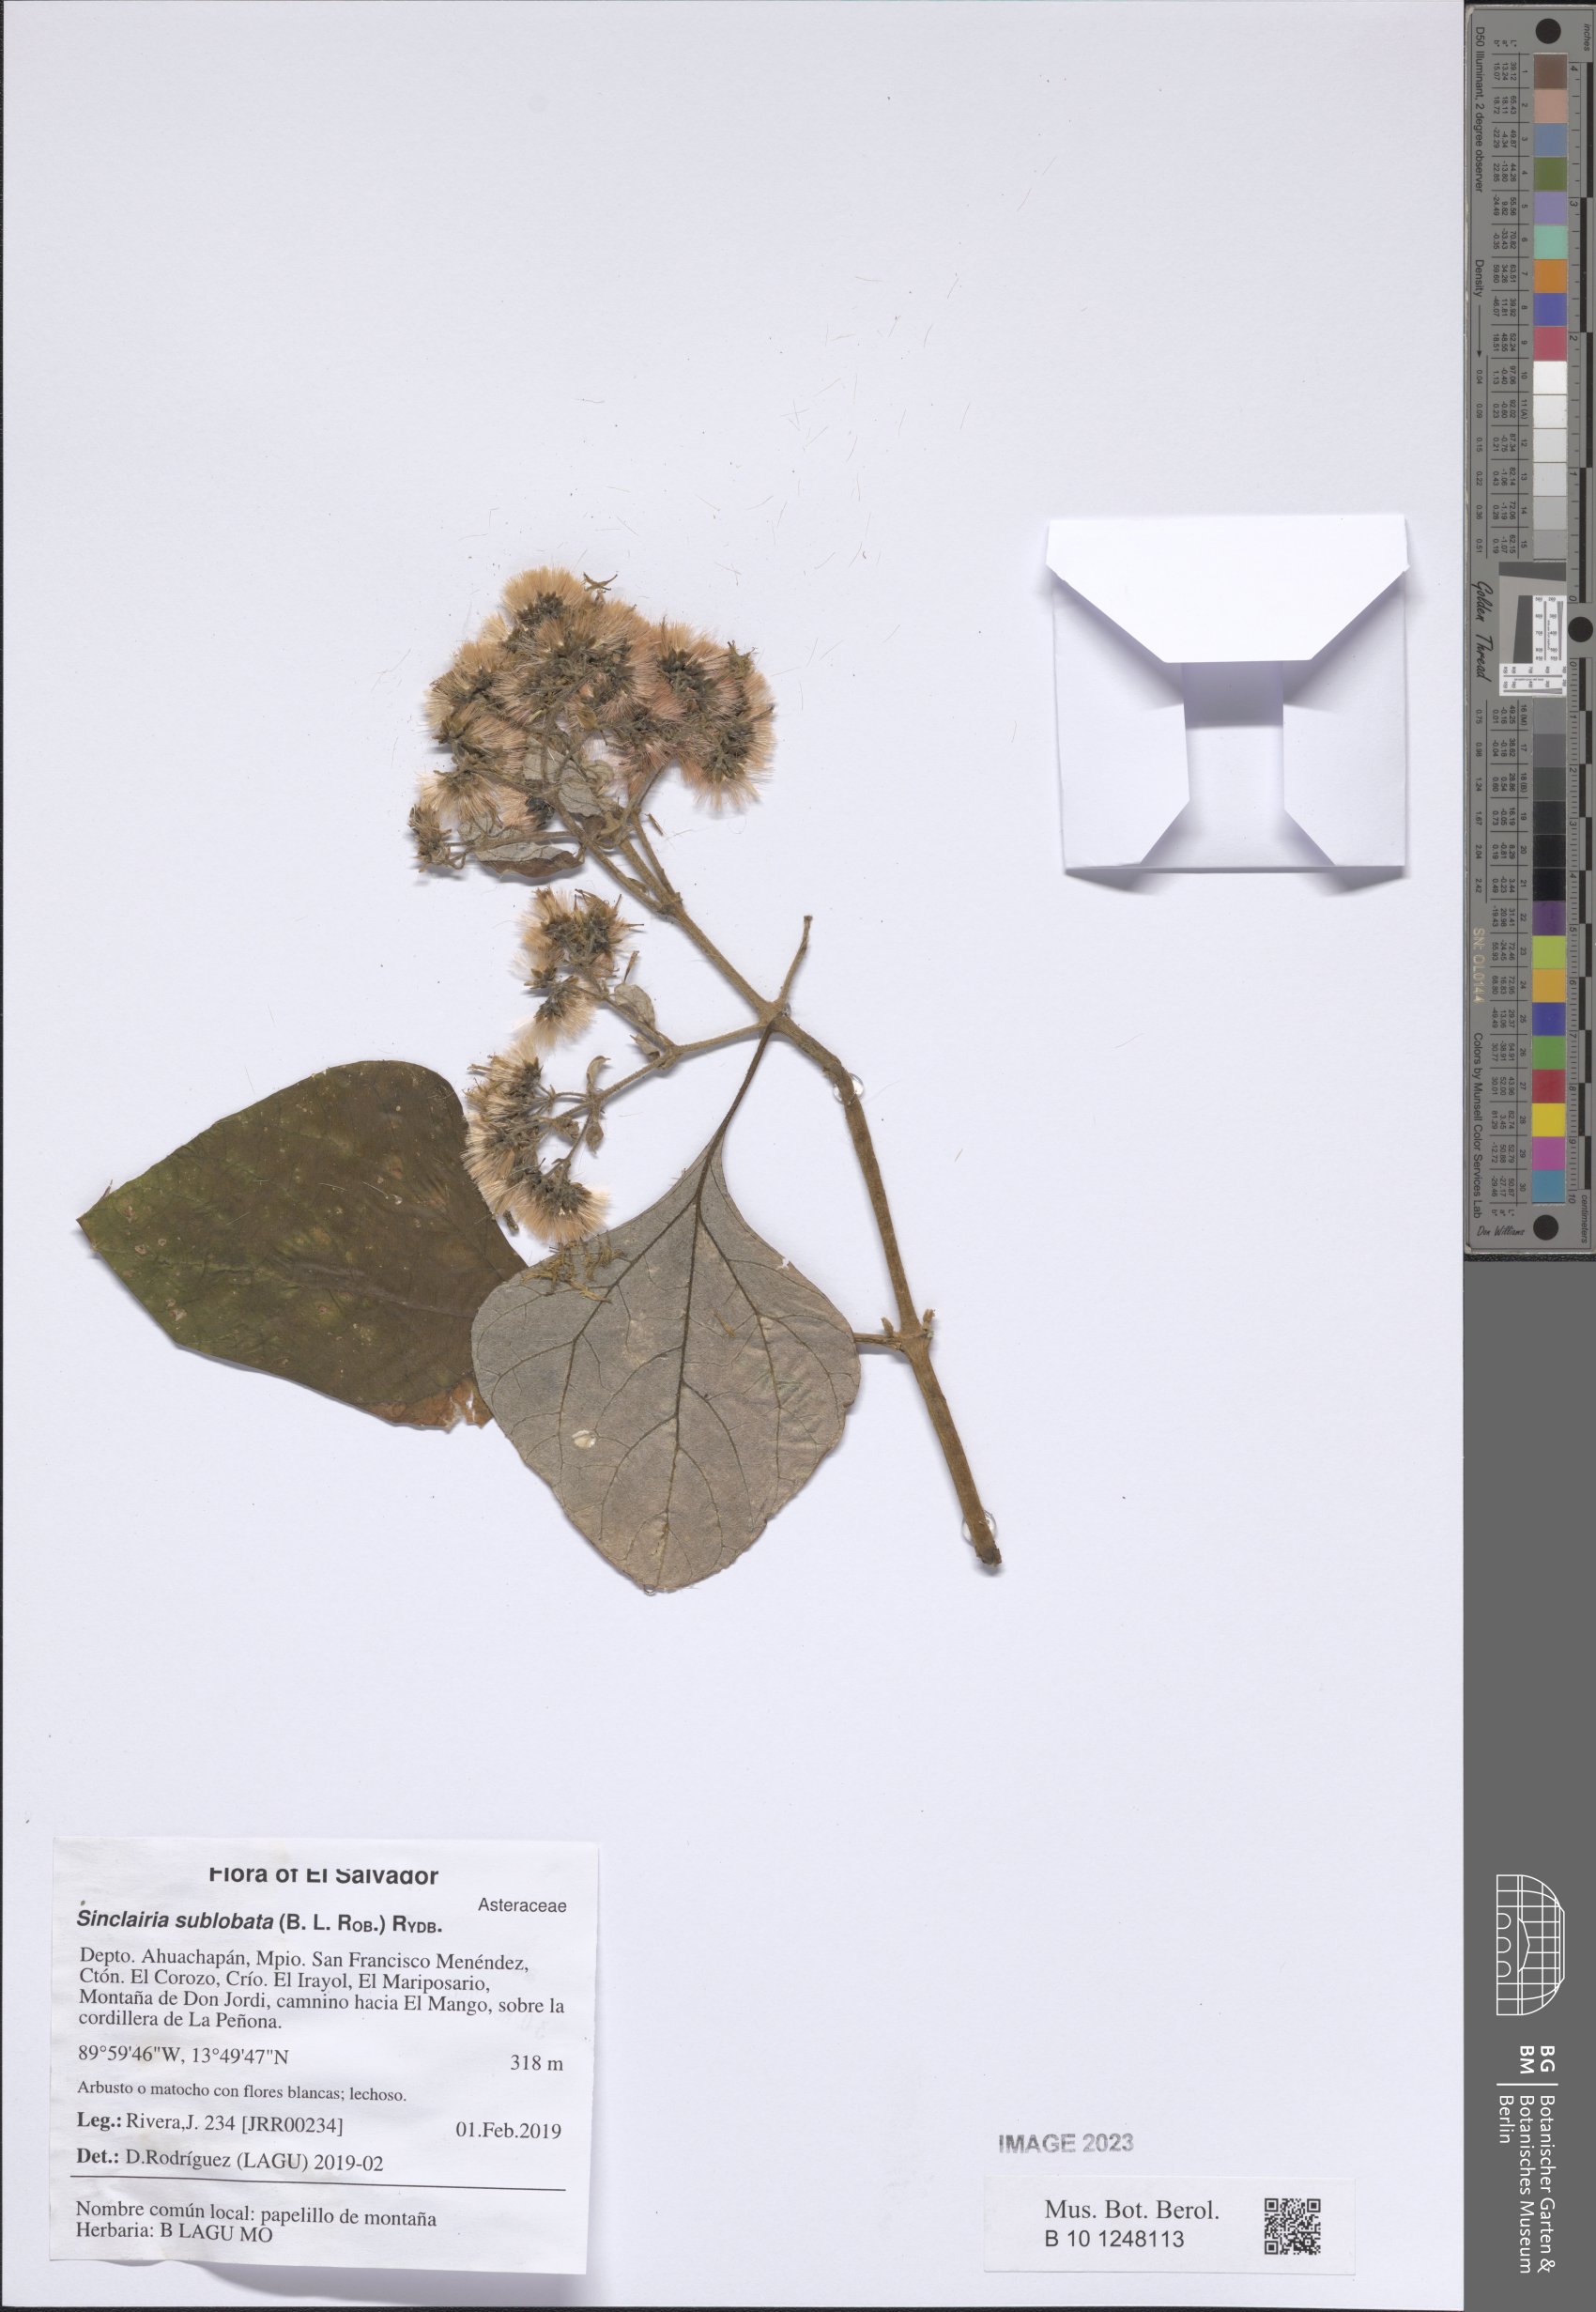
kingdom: Plantae
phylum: Tracheophyta
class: Magnoliopsida
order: Asterales
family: Asteraceae
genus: Sinclairia
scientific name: Sinclairia glabra
